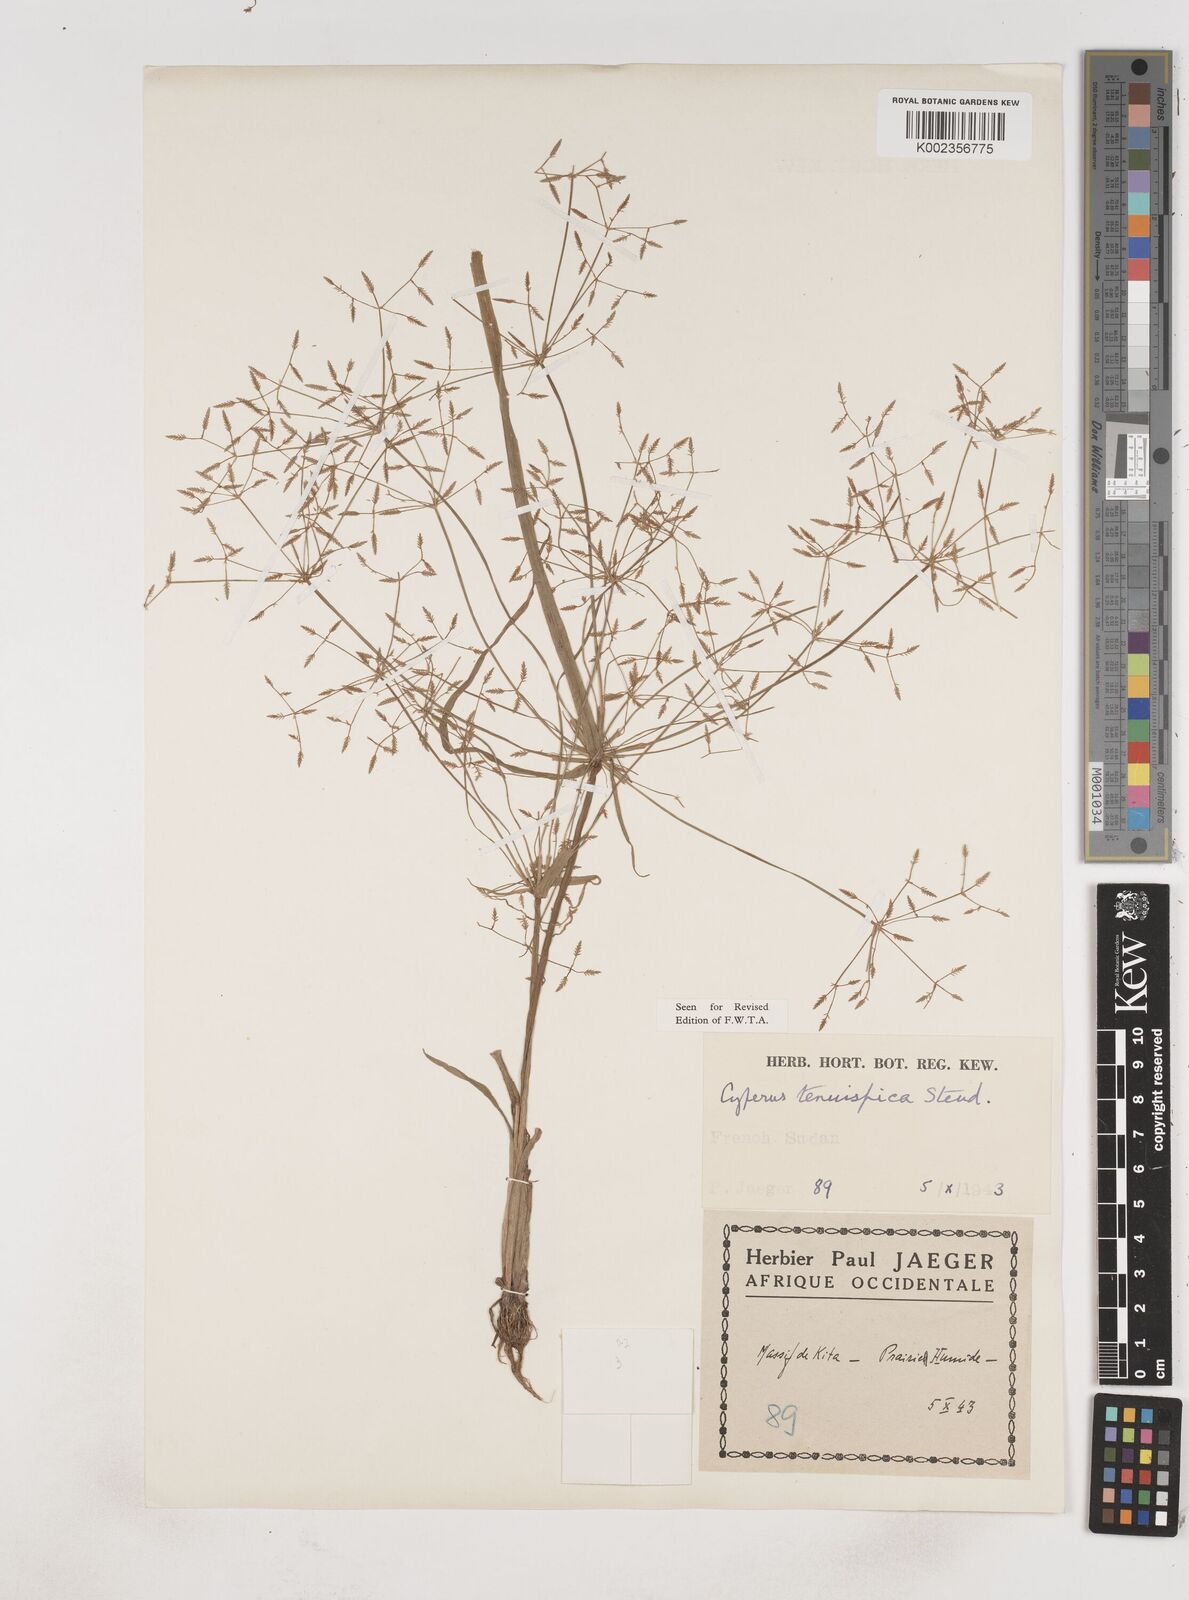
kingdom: Plantae
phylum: Tracheophyta
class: Liliopsida
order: Poales
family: Cyperaceae
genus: Cyperus
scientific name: Cyperus tenuispica
